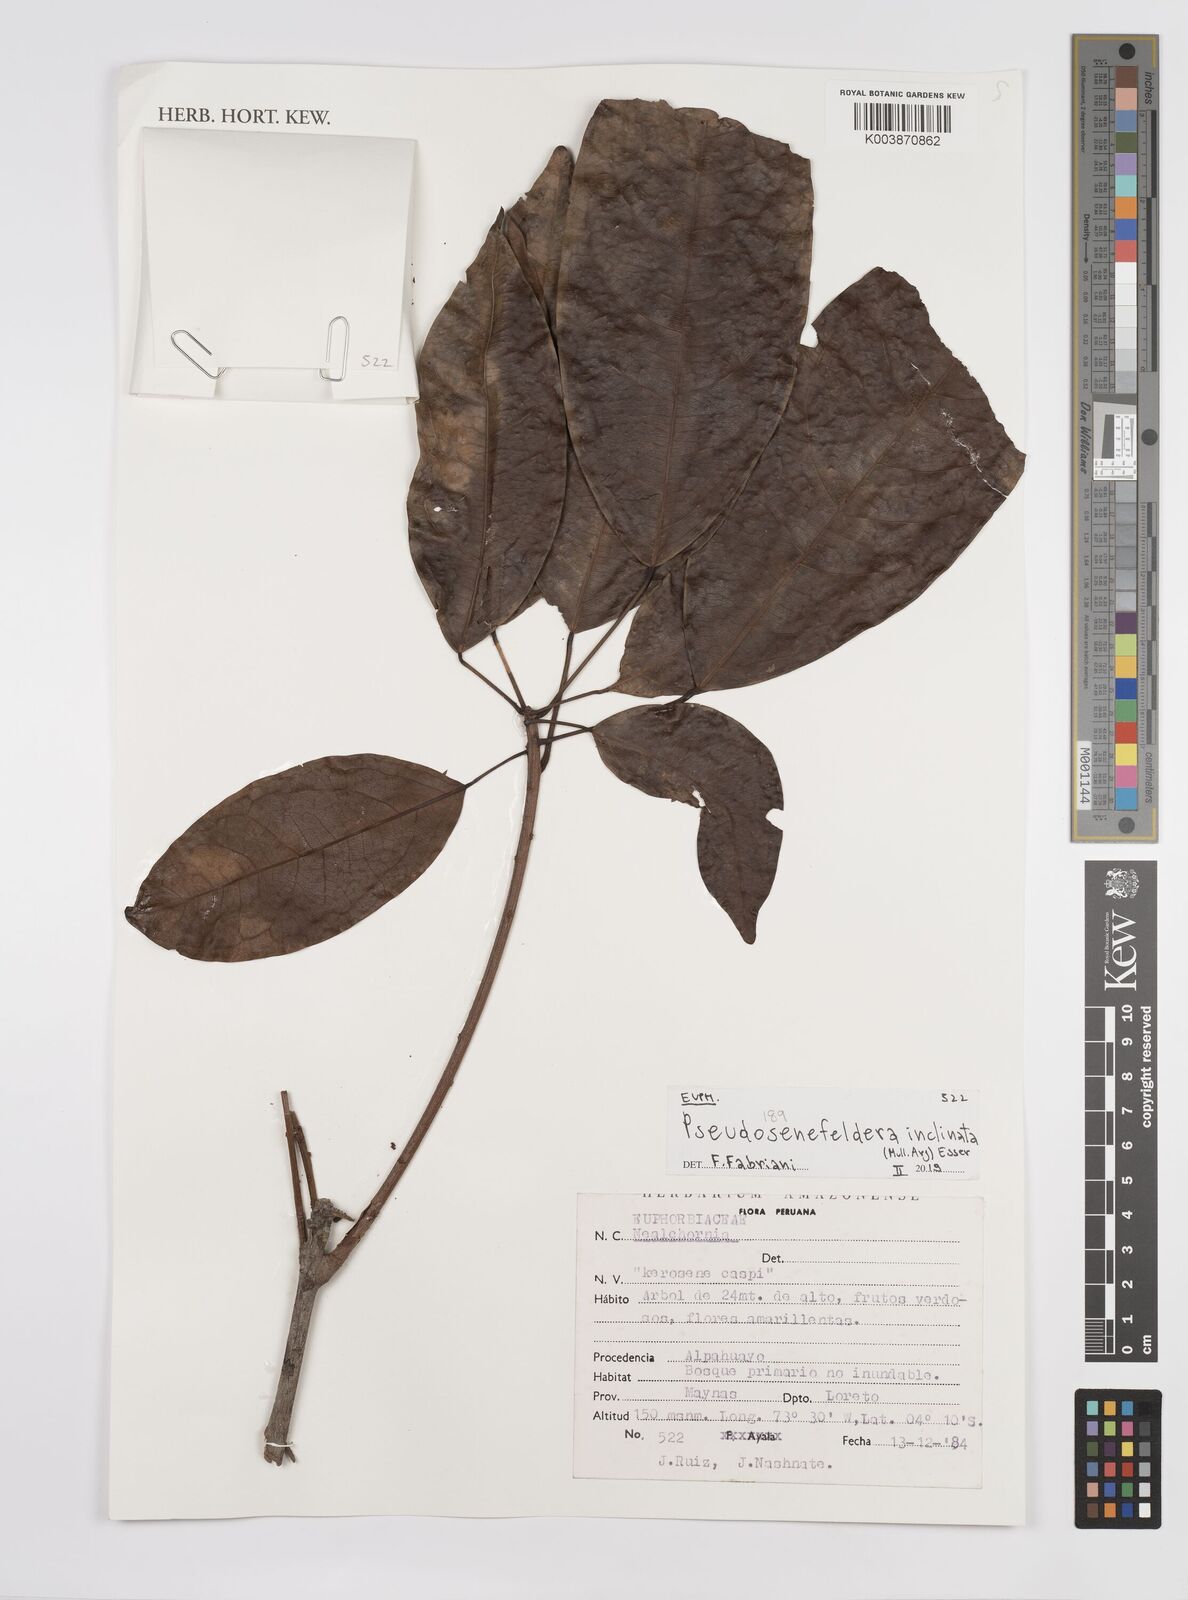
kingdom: Plantae
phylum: Tracheophyta
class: Magnoliopsida
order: Malpighiales
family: Euphorbiaceae
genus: Pseudosenefeldera
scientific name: Pseudosenefeldera inclinata
